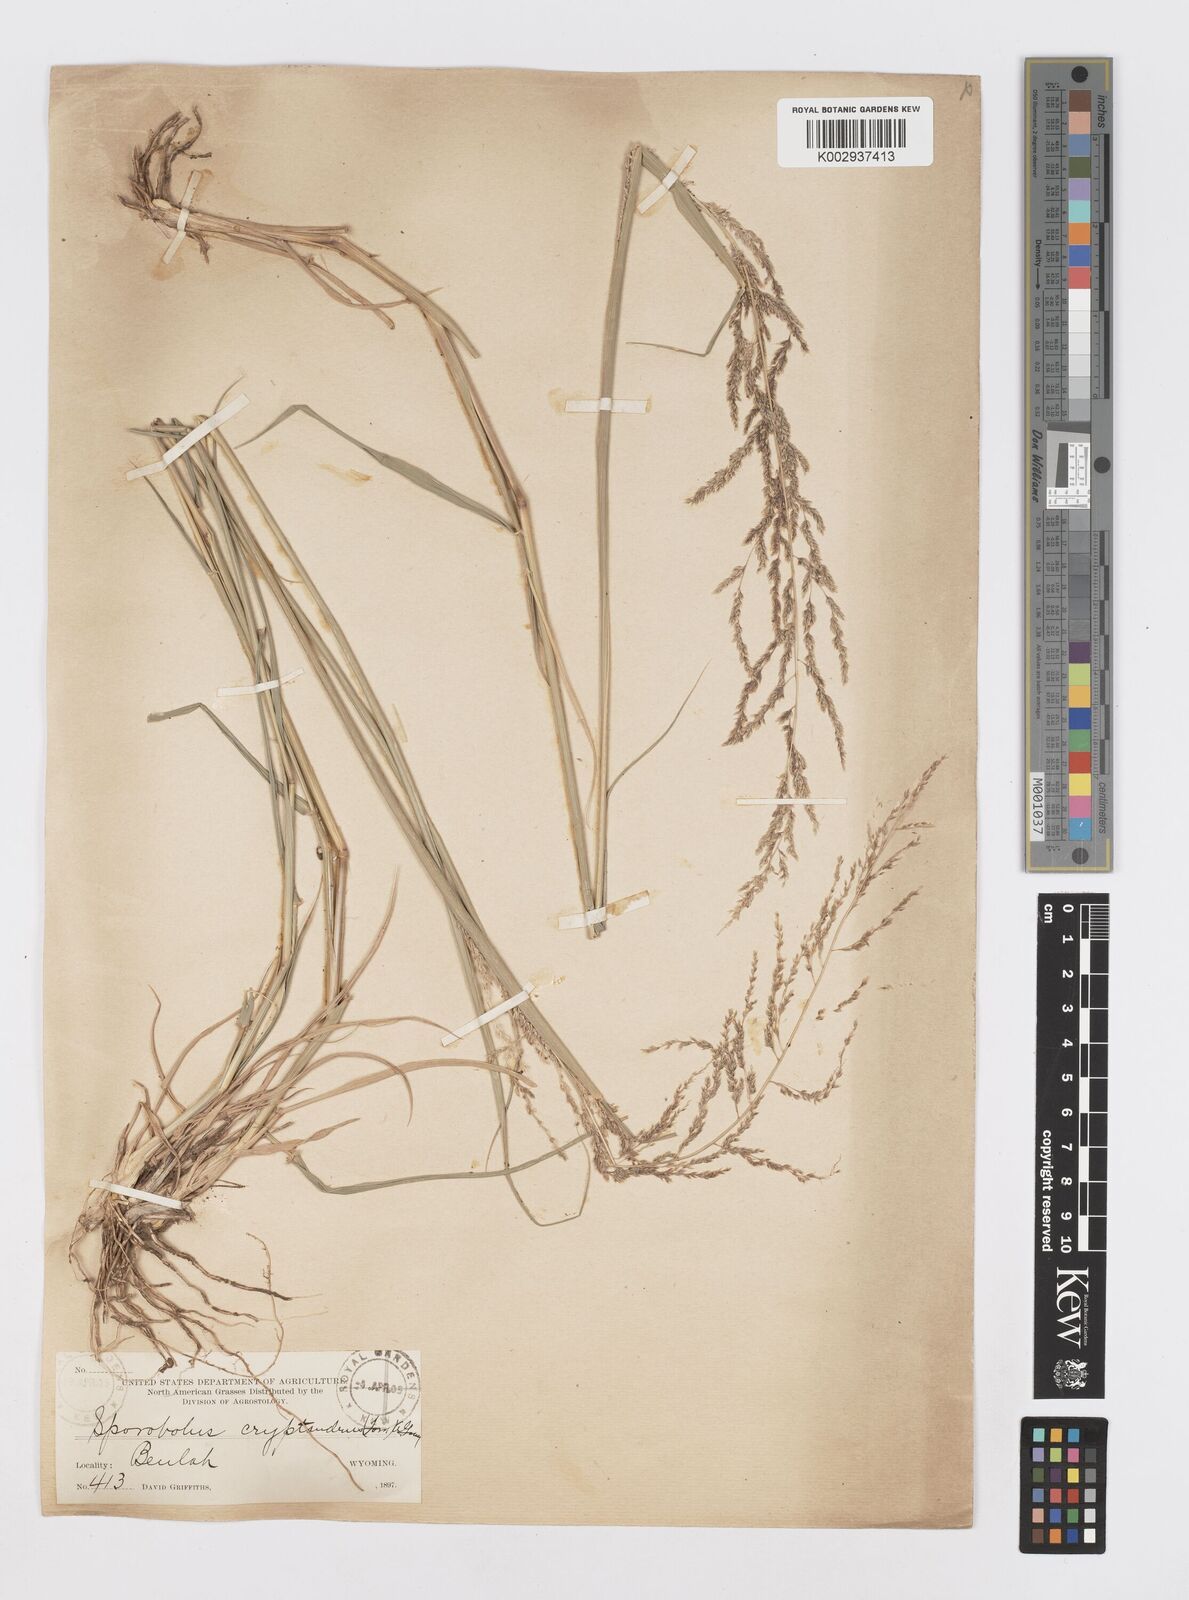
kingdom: Plantae
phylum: Tracheophyta
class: Liliopsida
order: Poales
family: Poaceae
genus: Sporobolus
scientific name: Sporobolus cryptandrus
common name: Sand dropseed
